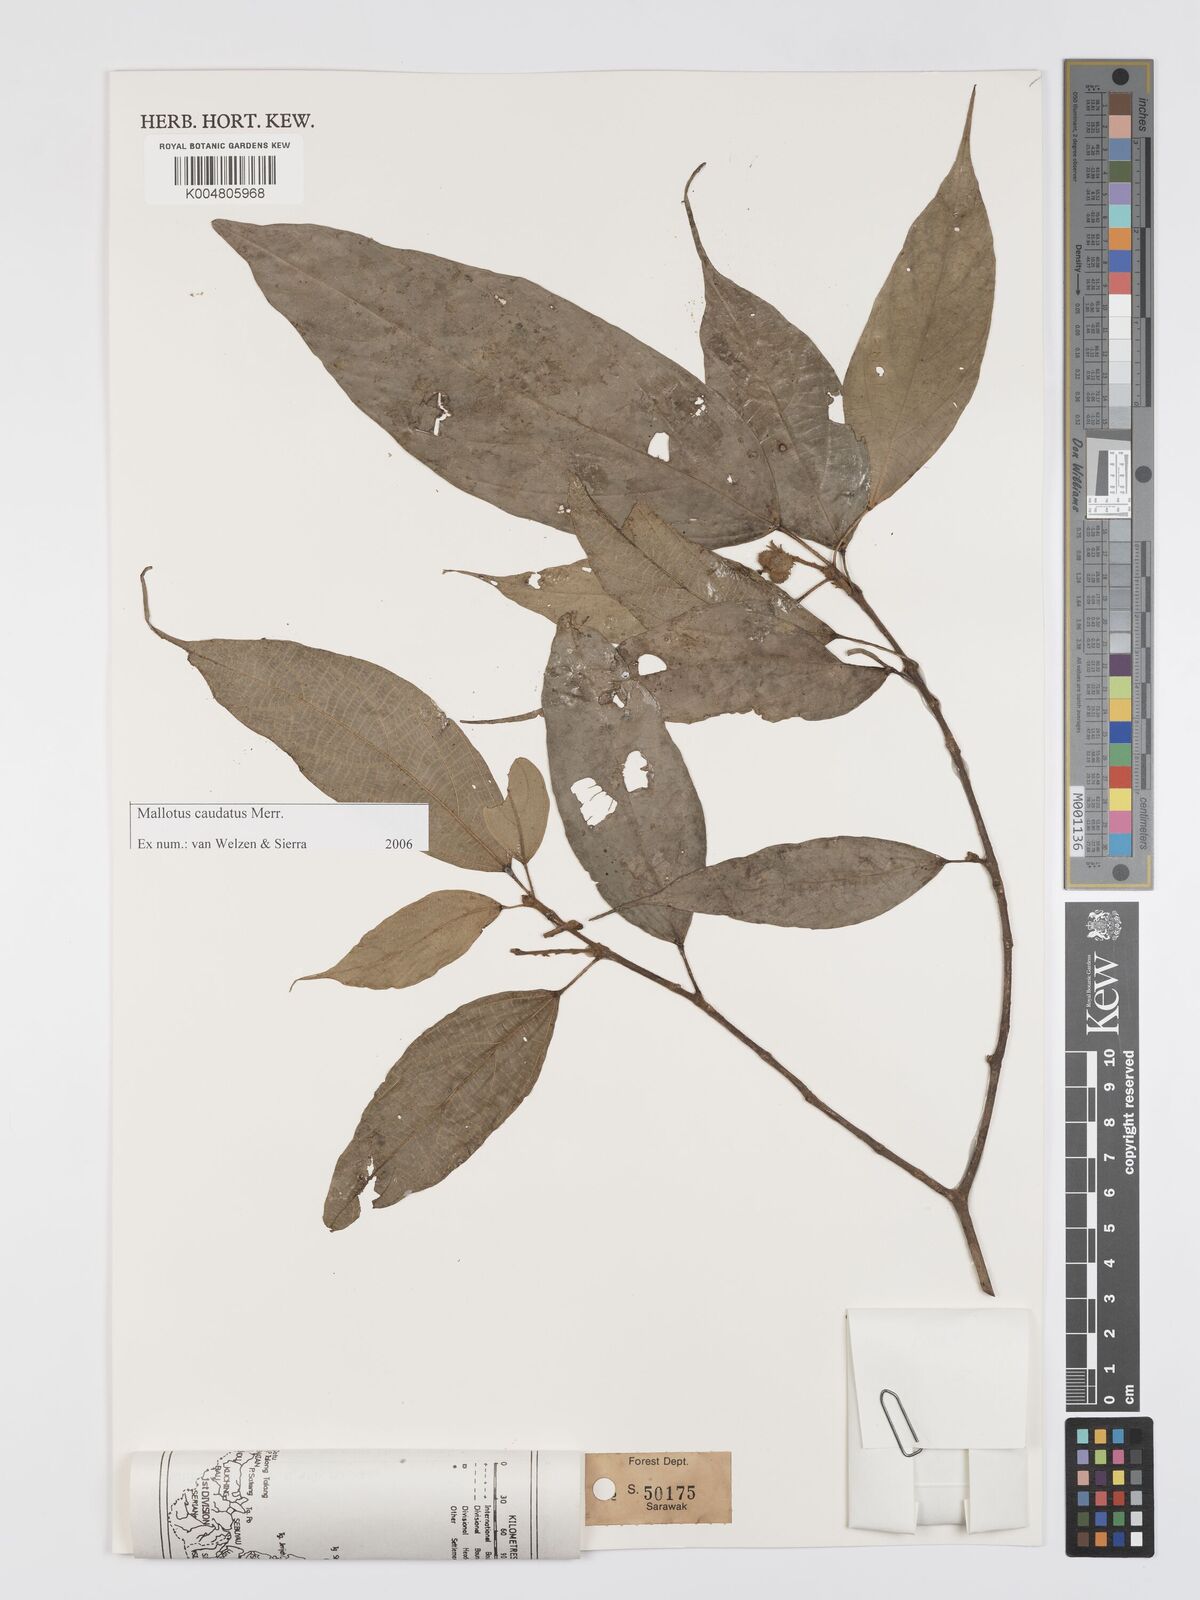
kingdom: Plantae
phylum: Tracheophyta
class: Magnoliopsida
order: Malpighiales
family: Euphorbiaceae
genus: Mallotus
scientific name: Mallotus caudatus
